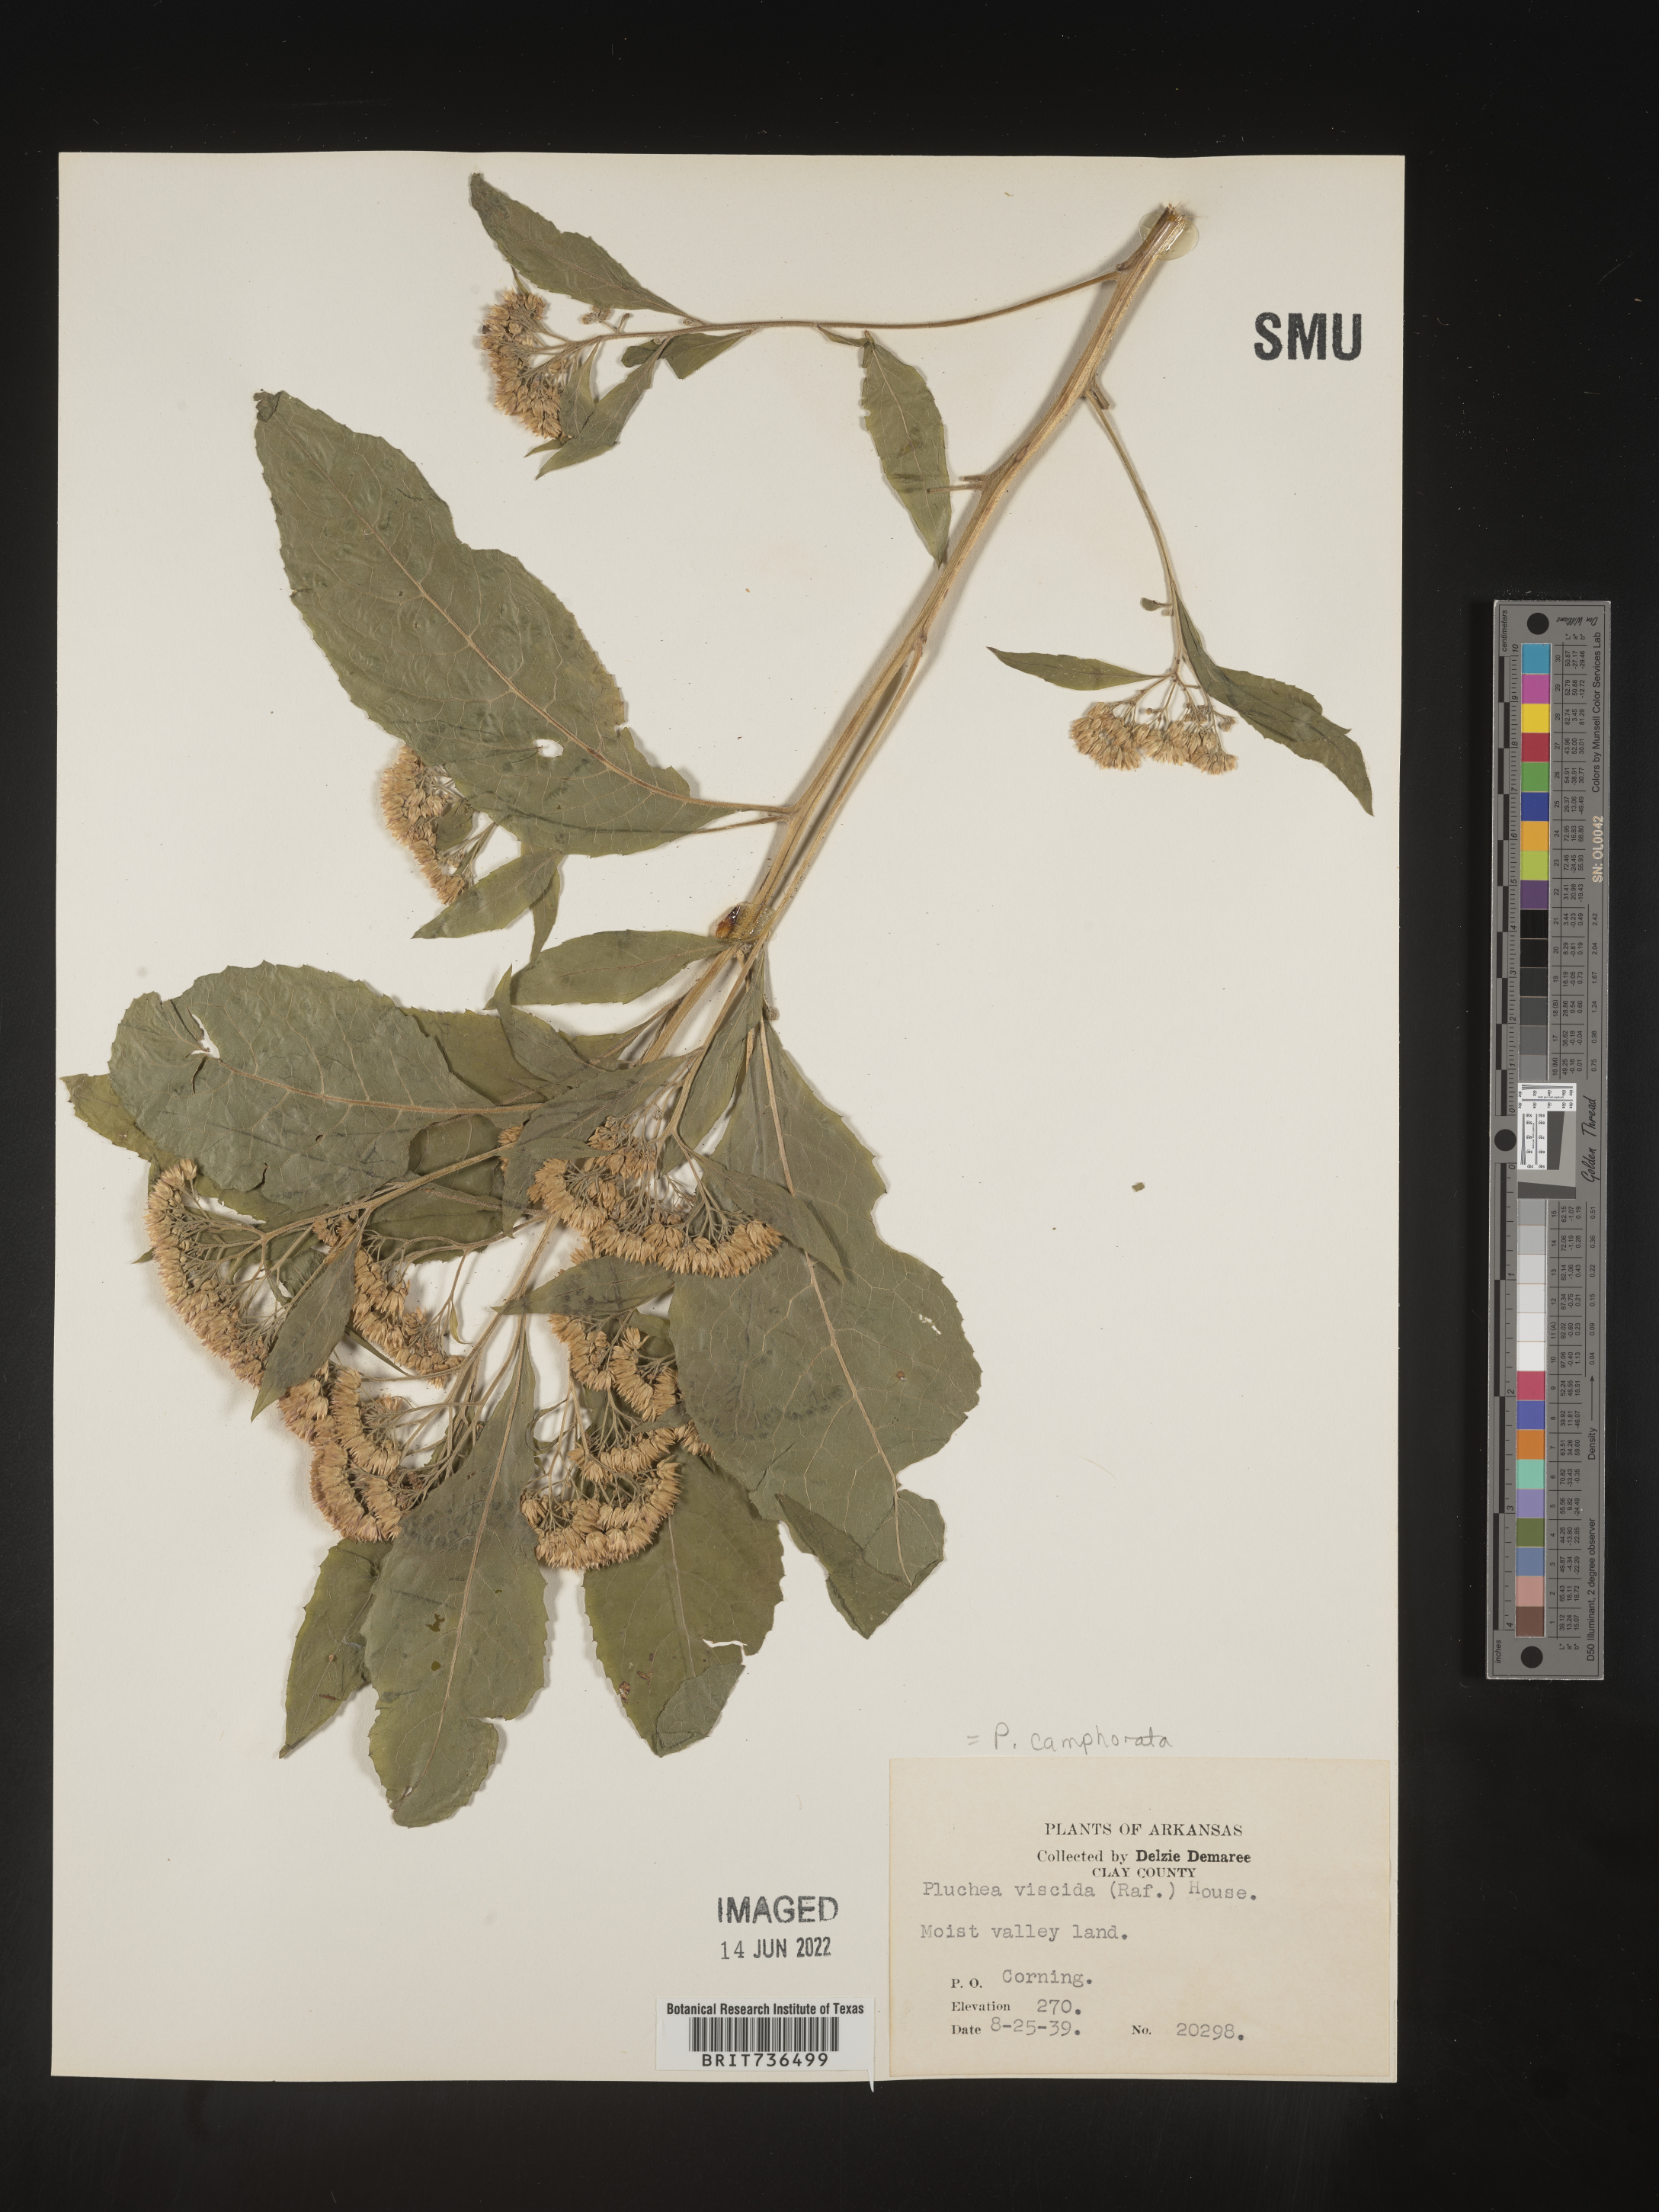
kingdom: Plantae
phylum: Tracheophyta
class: Magnoliopsida
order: Asterales
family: Asteraceae
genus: Pluchea
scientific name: Pluchea camphorata
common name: Camphor pluchea
